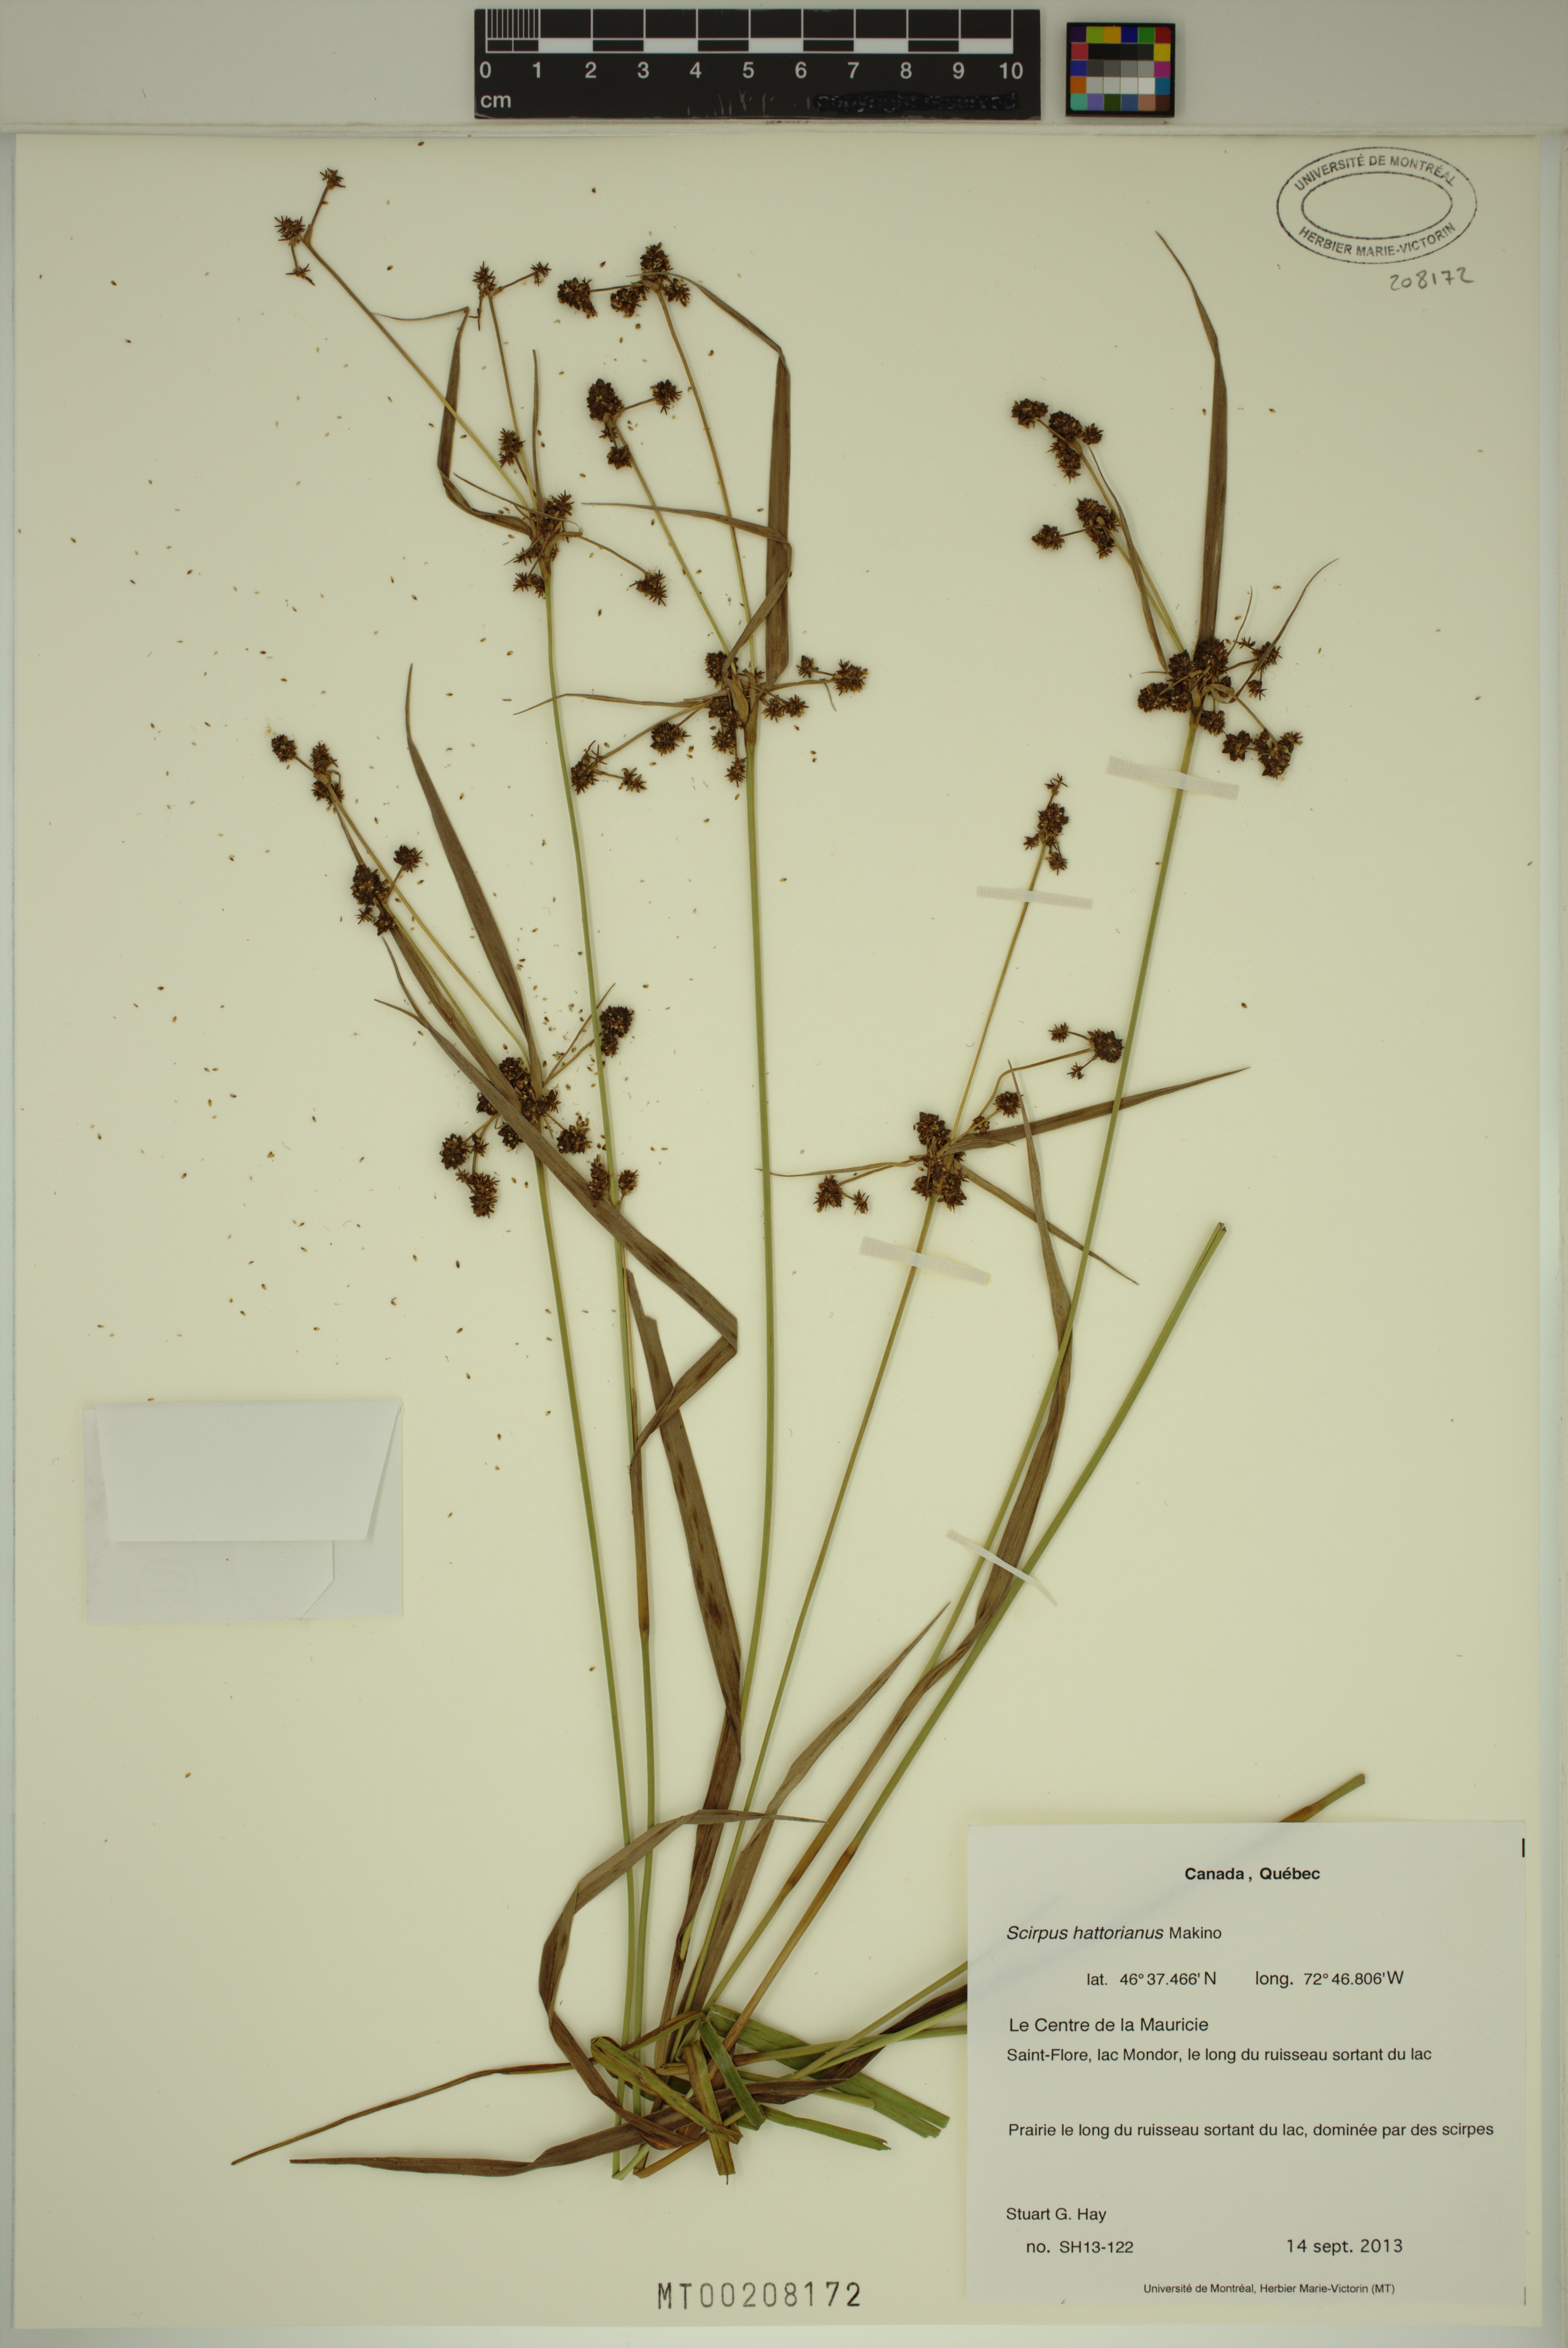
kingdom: Plantae
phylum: Tracheophyta
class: Liliopsida
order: Poales
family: Cyperaceae
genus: Scirpus
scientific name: Scirpus hattorianus
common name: Early dark-green bulrush
